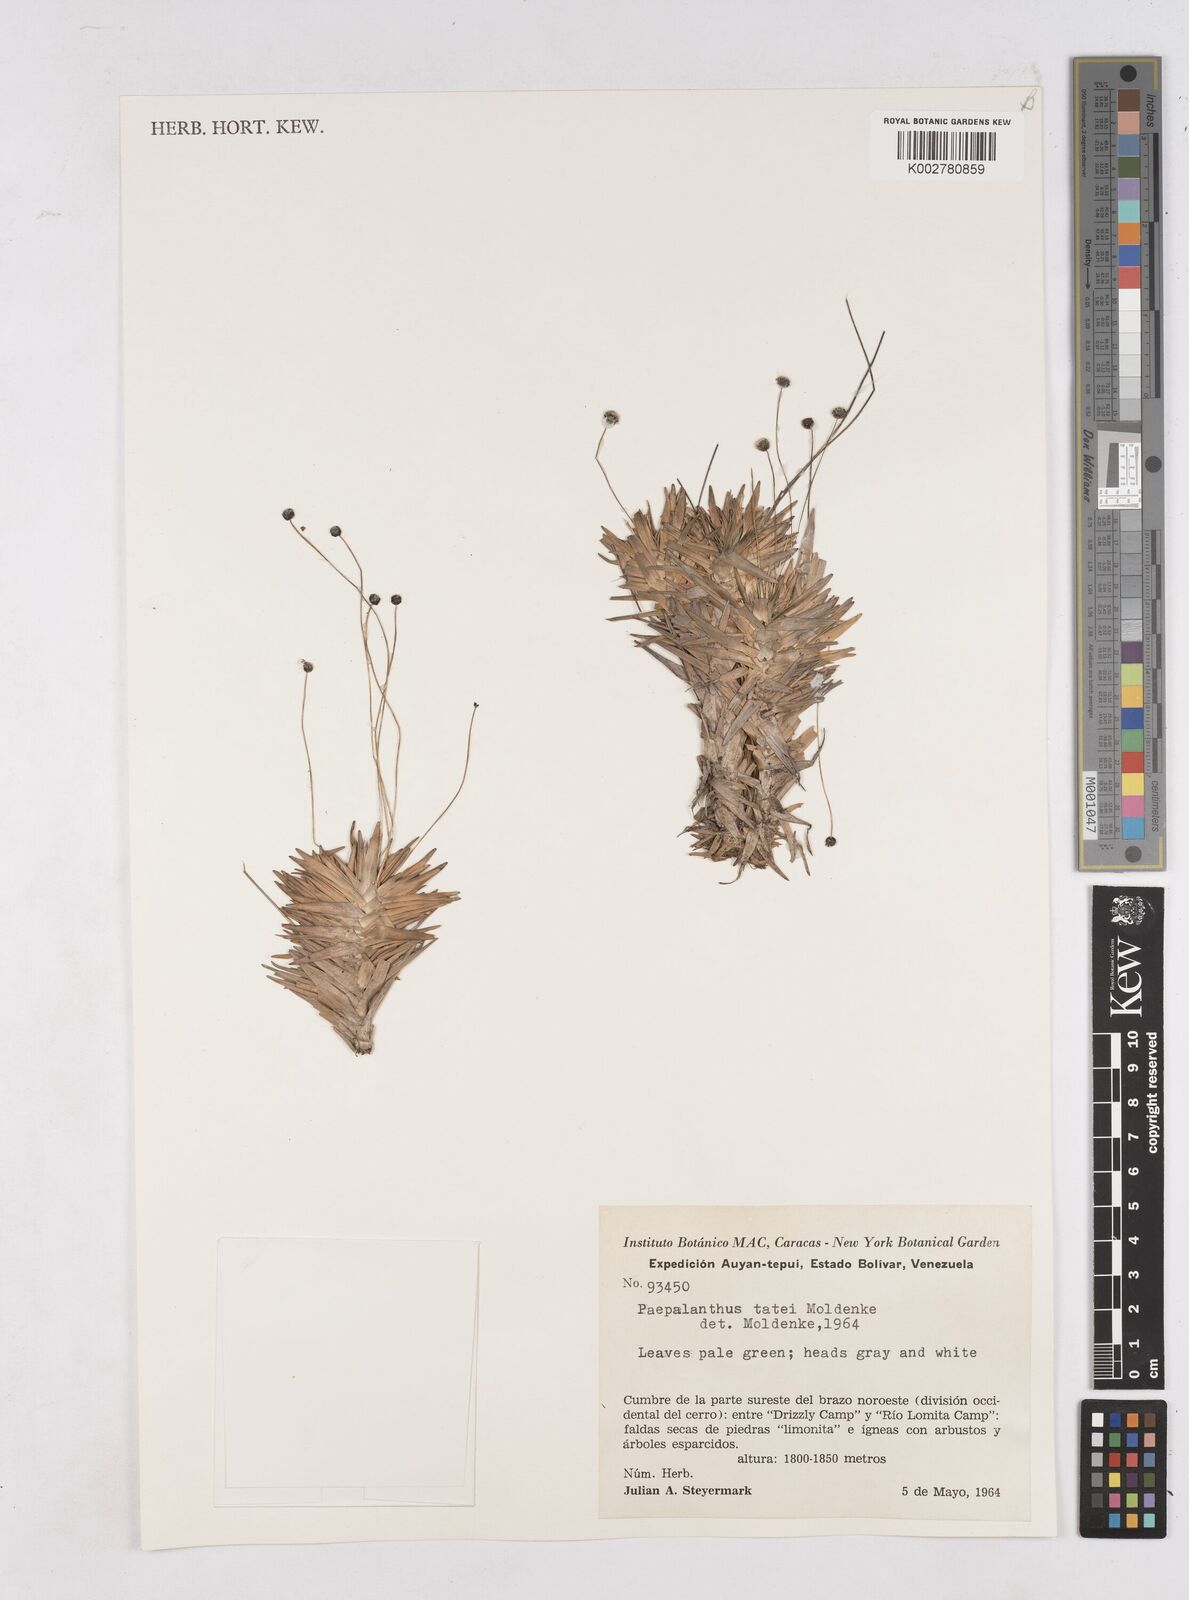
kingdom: Plantae
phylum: Tracheophyta
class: Liliopsida
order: Poales
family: Eriocaulaceae
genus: Paepalanthus
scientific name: Paepalanthus tortilis
